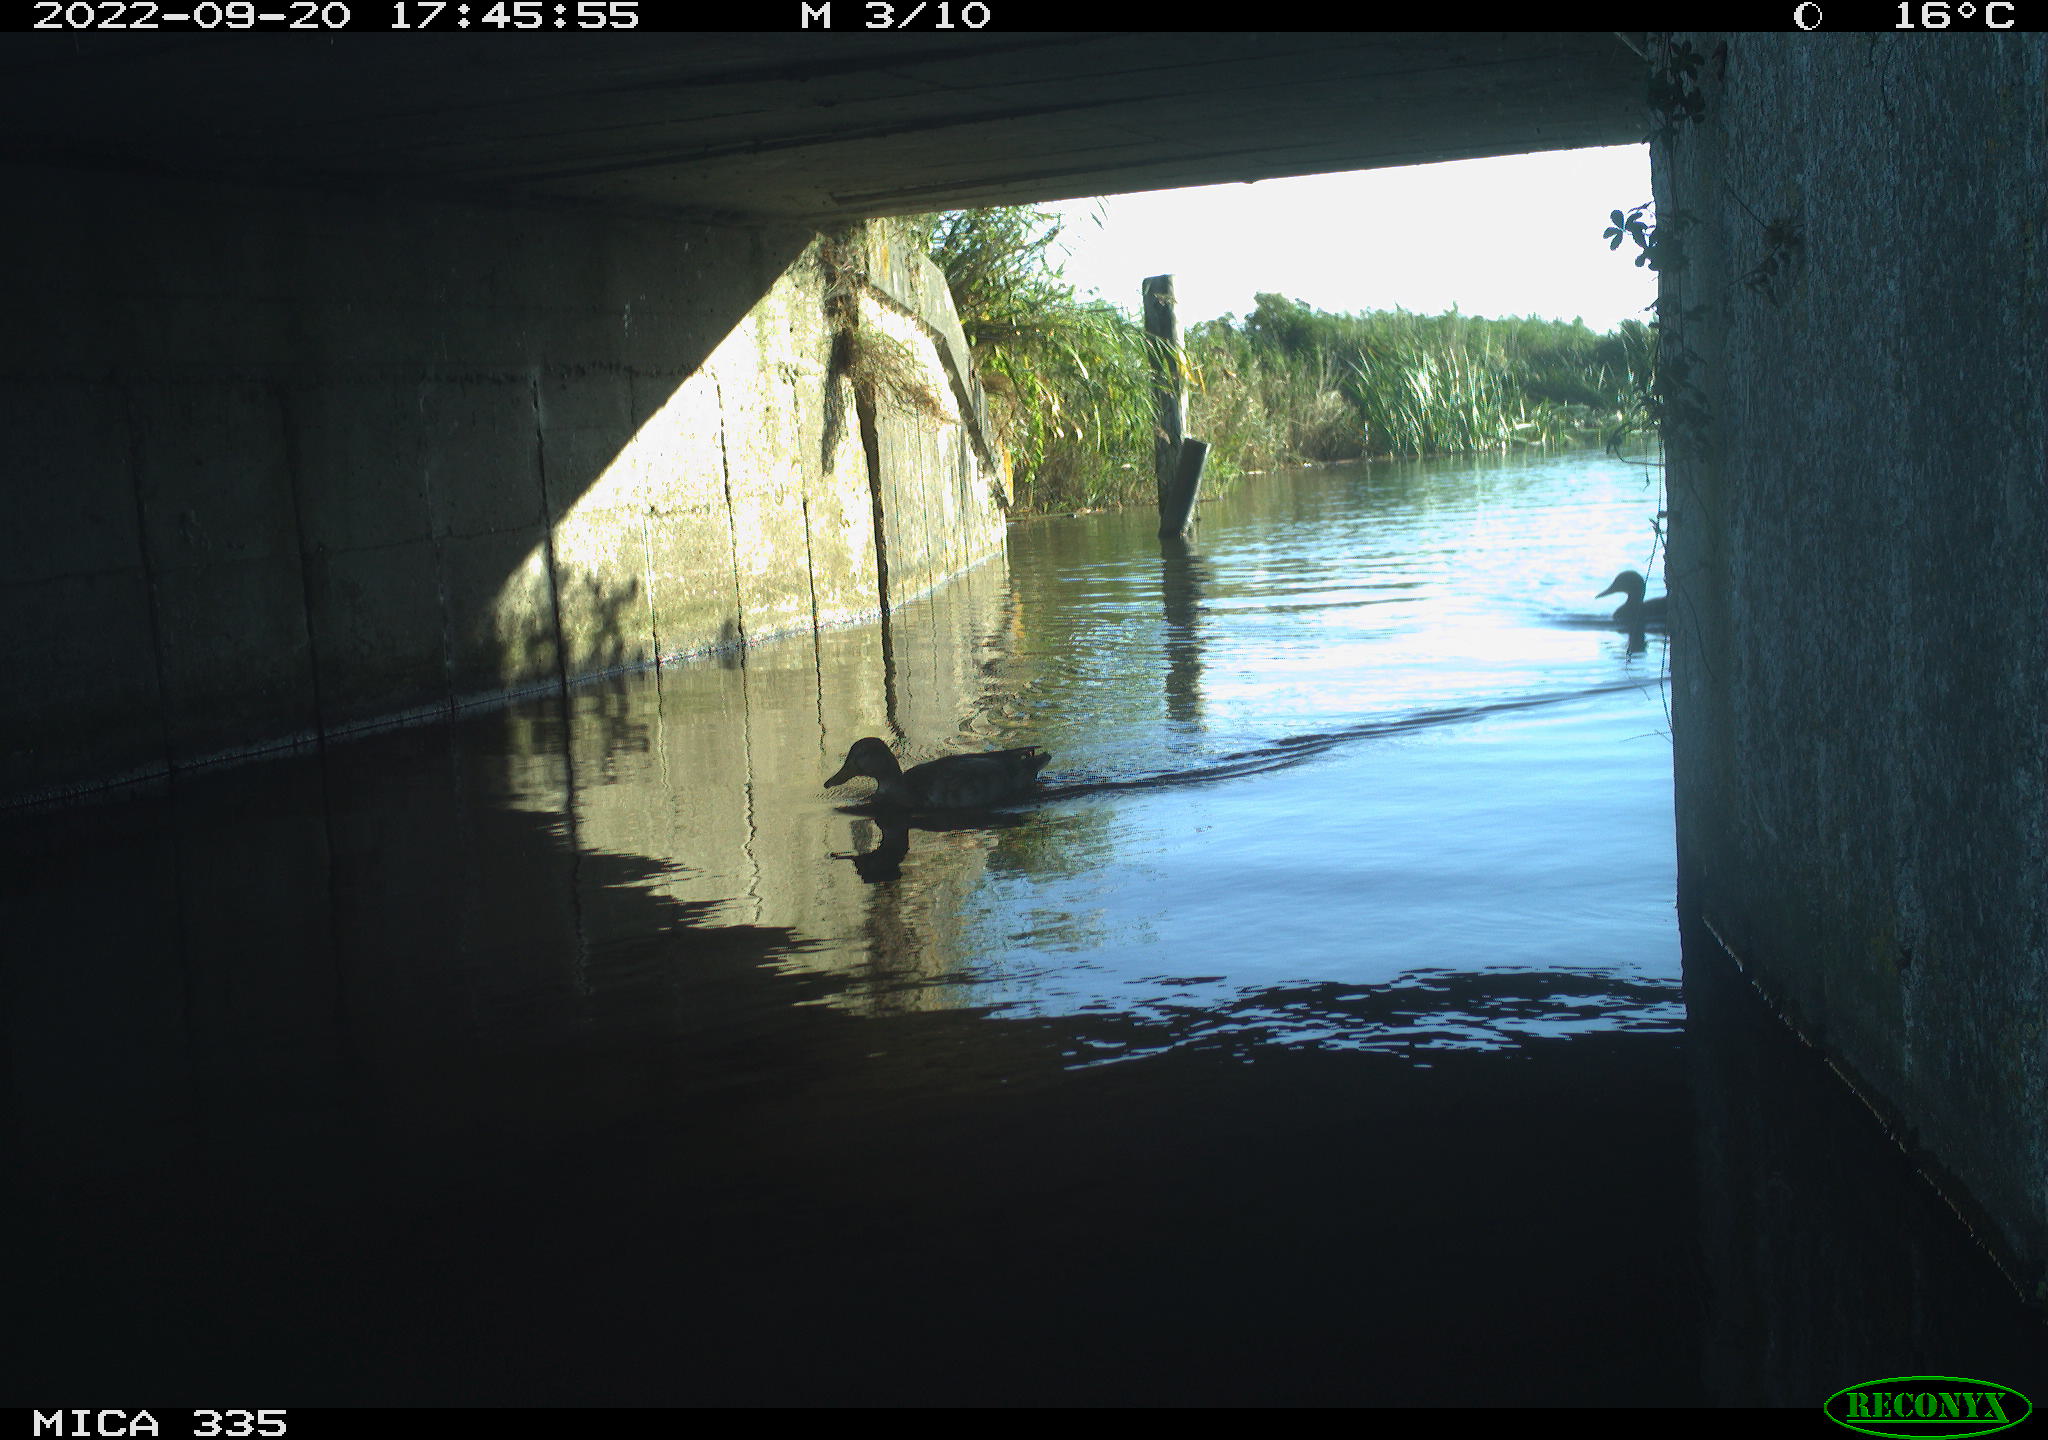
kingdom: Animalia
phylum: Chordata
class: Aves
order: Anseriformes
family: Anatidae
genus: Anas
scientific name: Anas platyrhynchos
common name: Mallard
